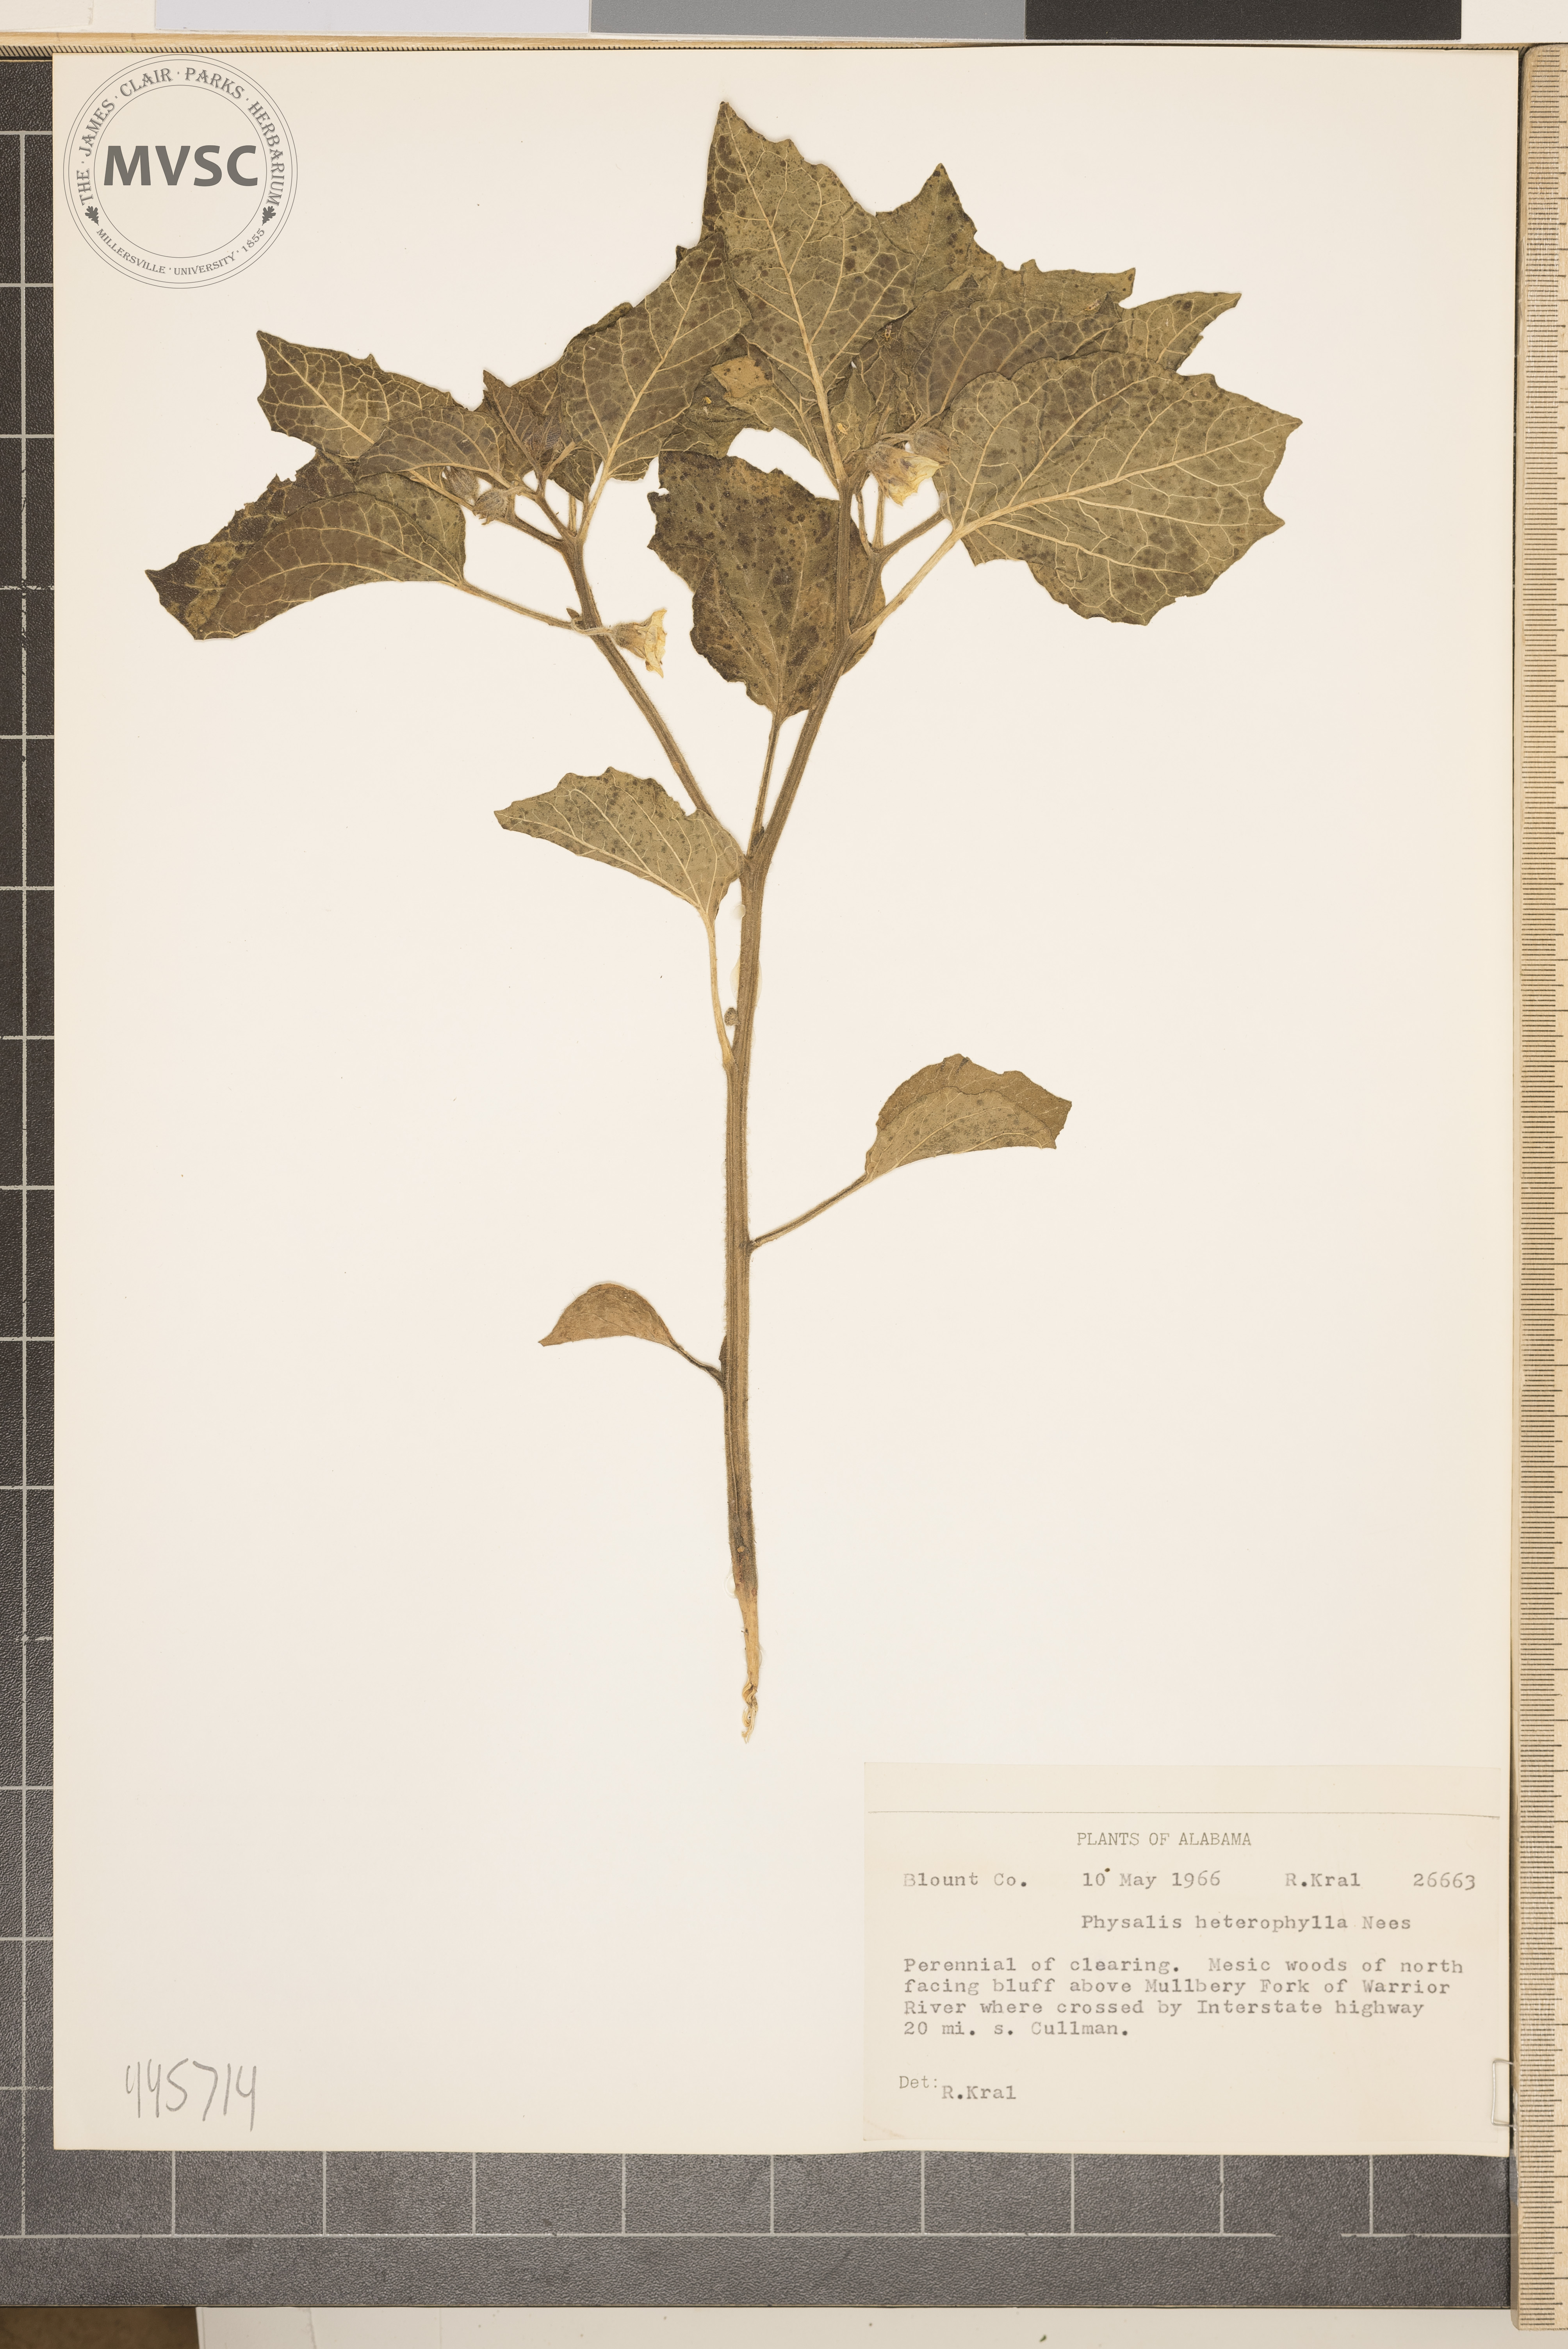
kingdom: Plantae
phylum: Tracheophyta
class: Magnoliopsida
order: Solanales
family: Solanaceae
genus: Physalis
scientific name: Physalis heterophylla
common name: Clammy ground-cherry
